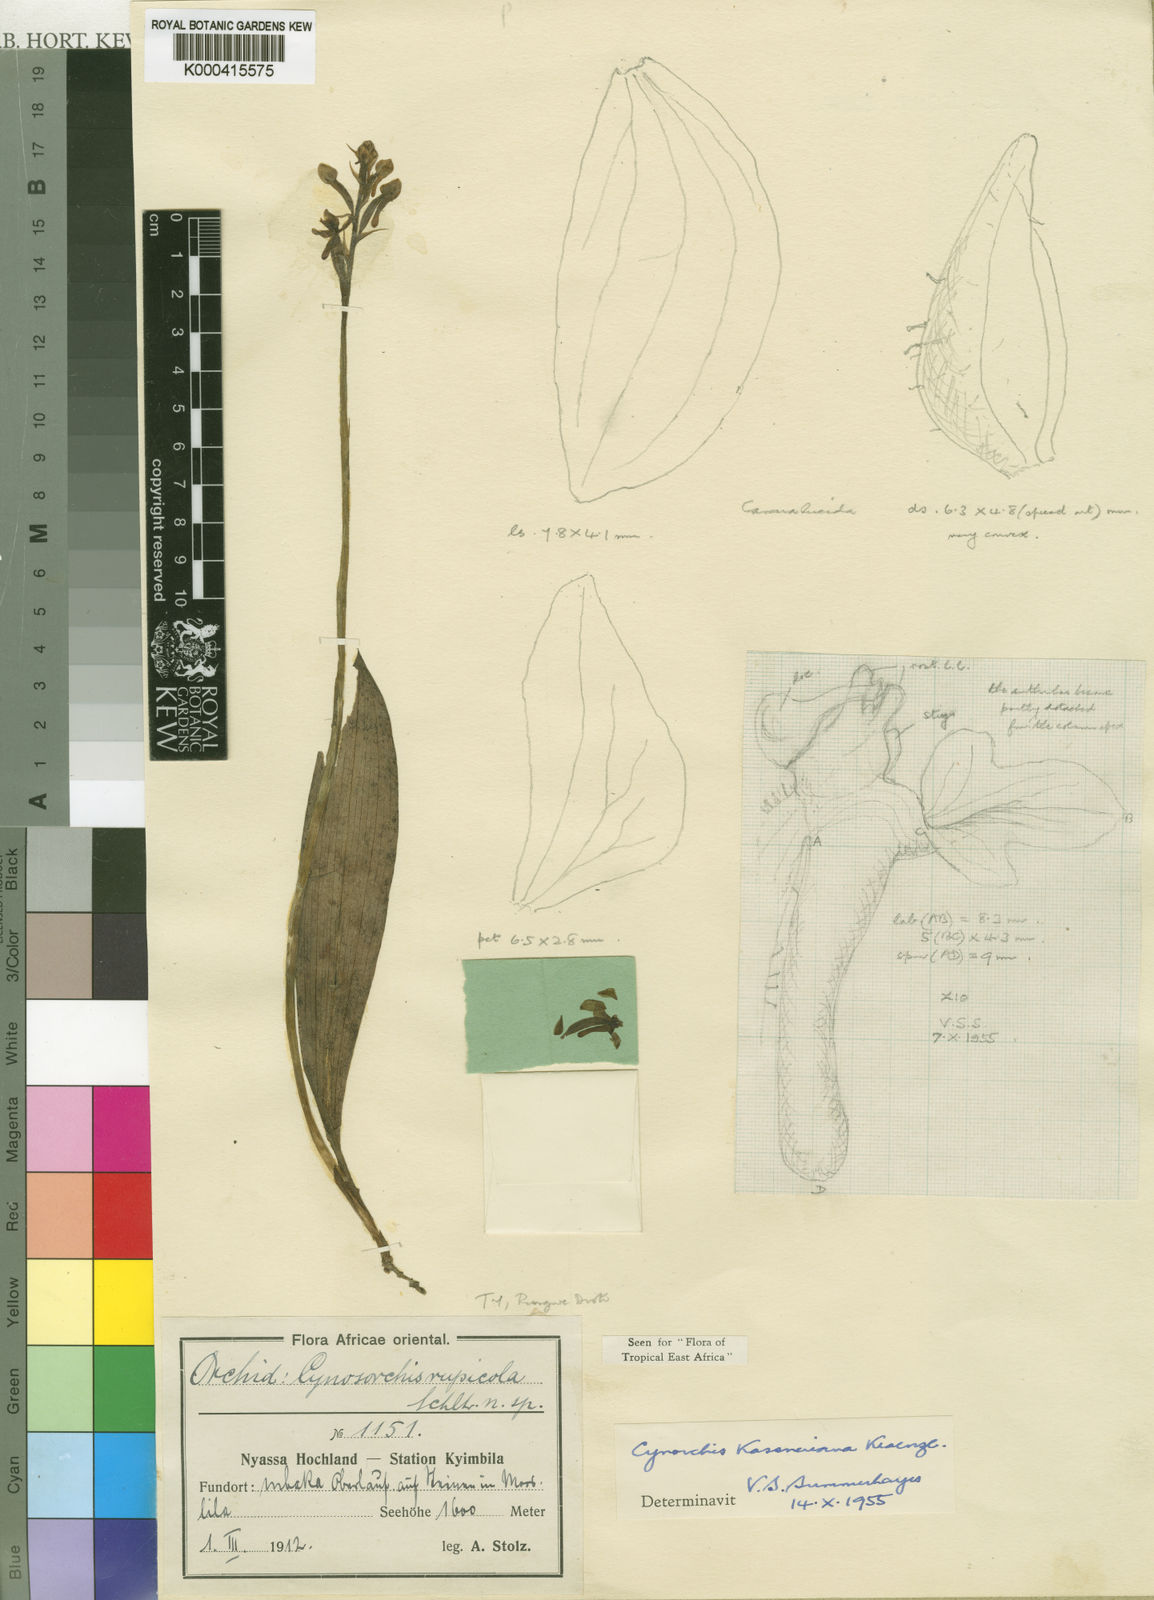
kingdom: Plantae
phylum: Tracheophyta
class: Liliopsida
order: Asparagales
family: Orchidaceae
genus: Cynorkis
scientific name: Cynorkis kassneriana
